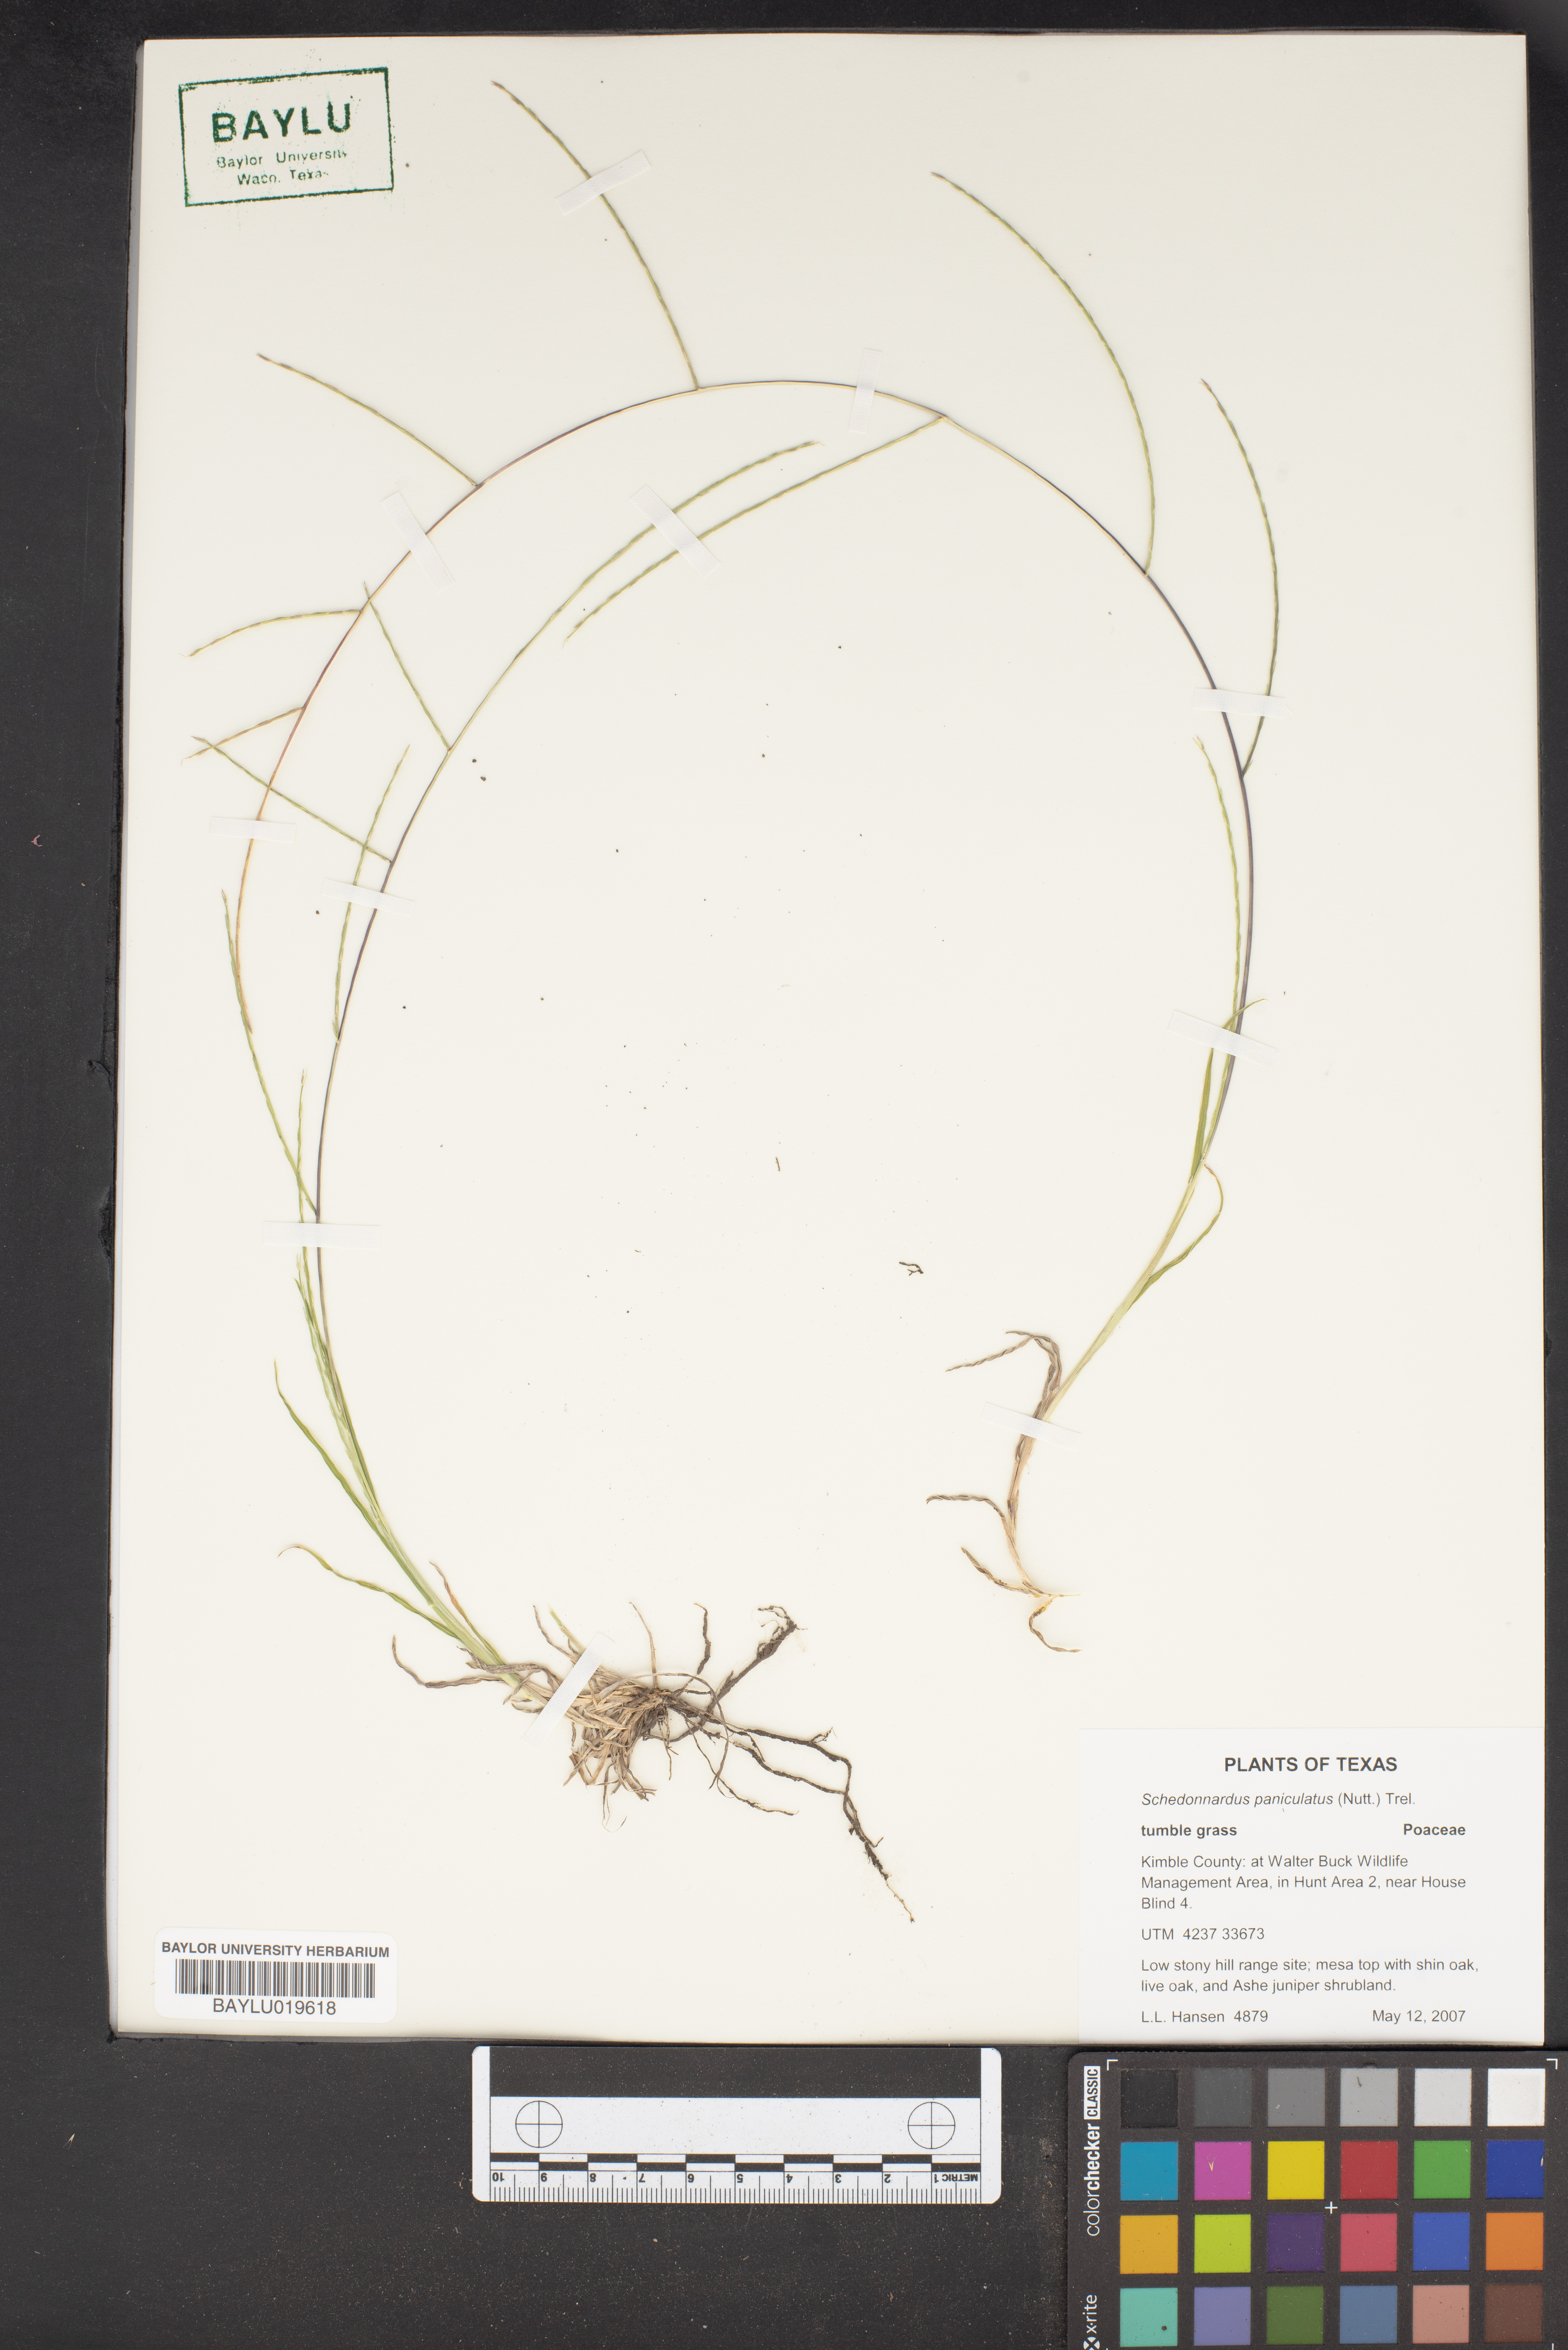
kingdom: Plantae
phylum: Tracheophyta
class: Liliopsida
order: Poales
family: Poaceae
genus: Muhlenbergia
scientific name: Muhlenbergia paniculata
